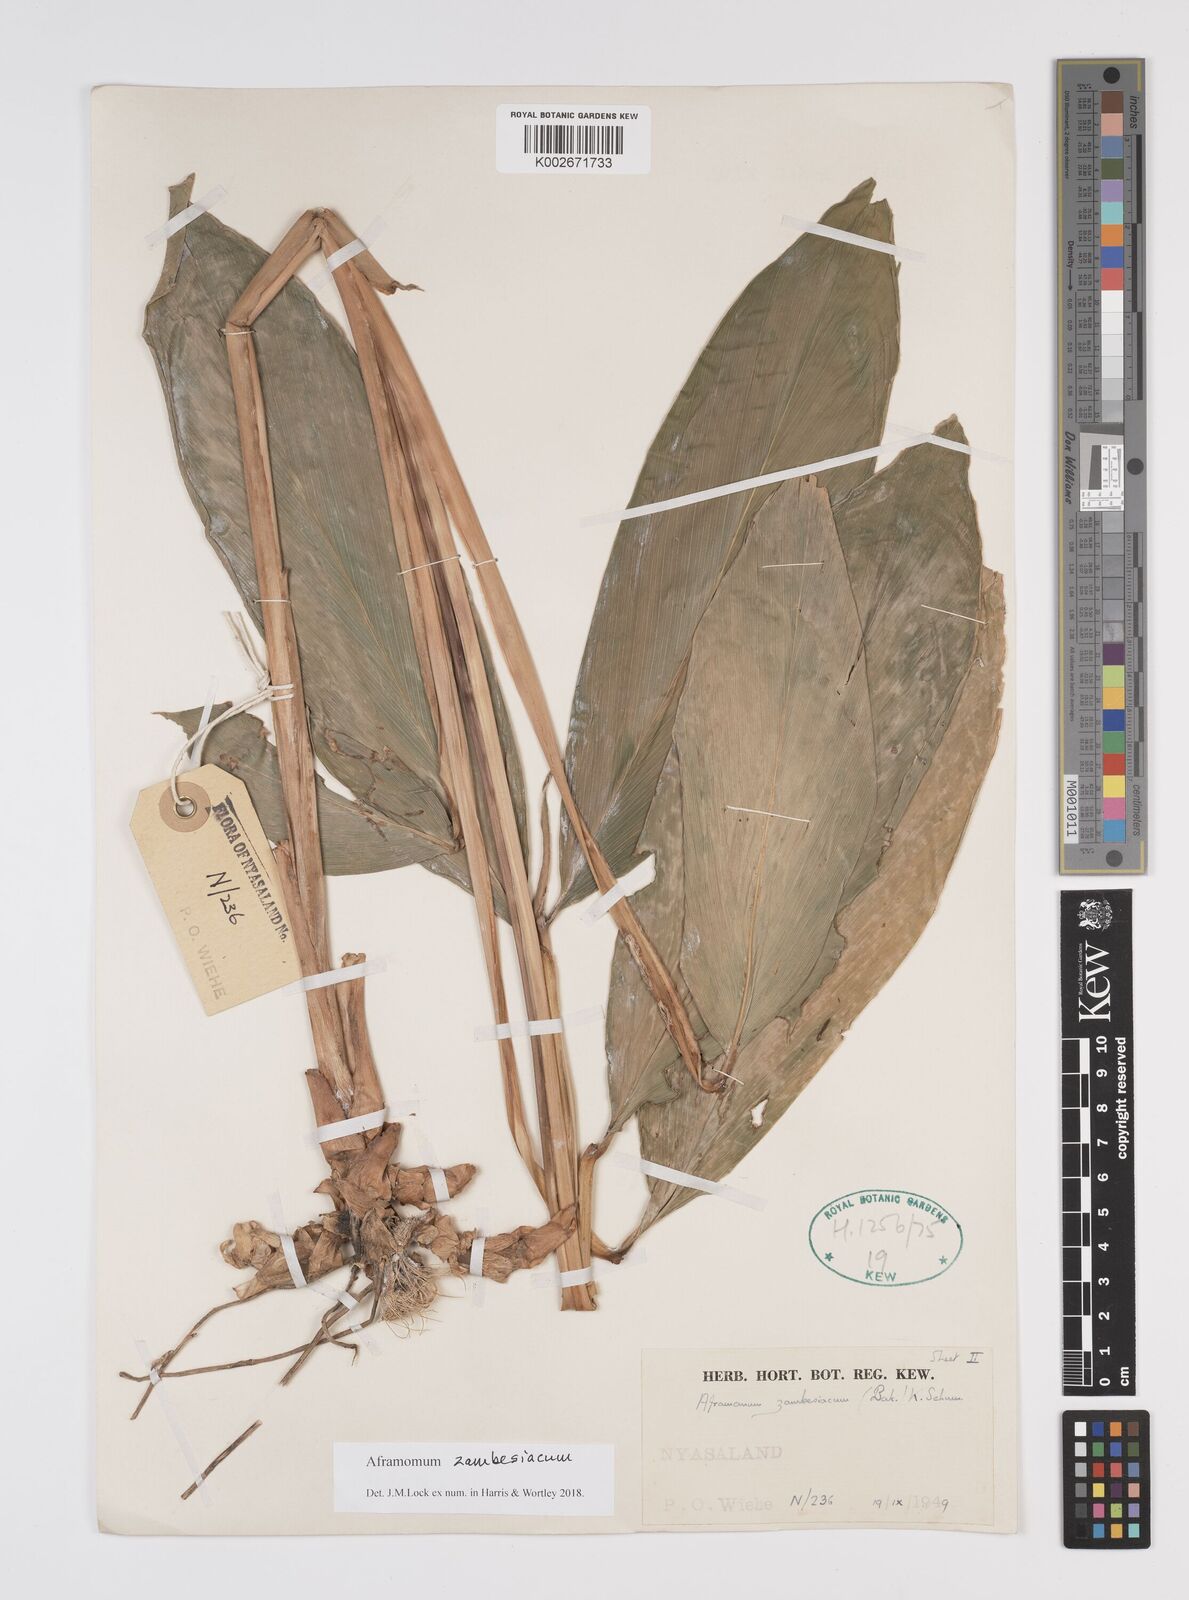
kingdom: Plantae
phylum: Tracheophyta
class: Liliopsida
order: Zingiberales
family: Zingiberaceae
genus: Aframomum
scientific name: Aframomum zambesiacum
